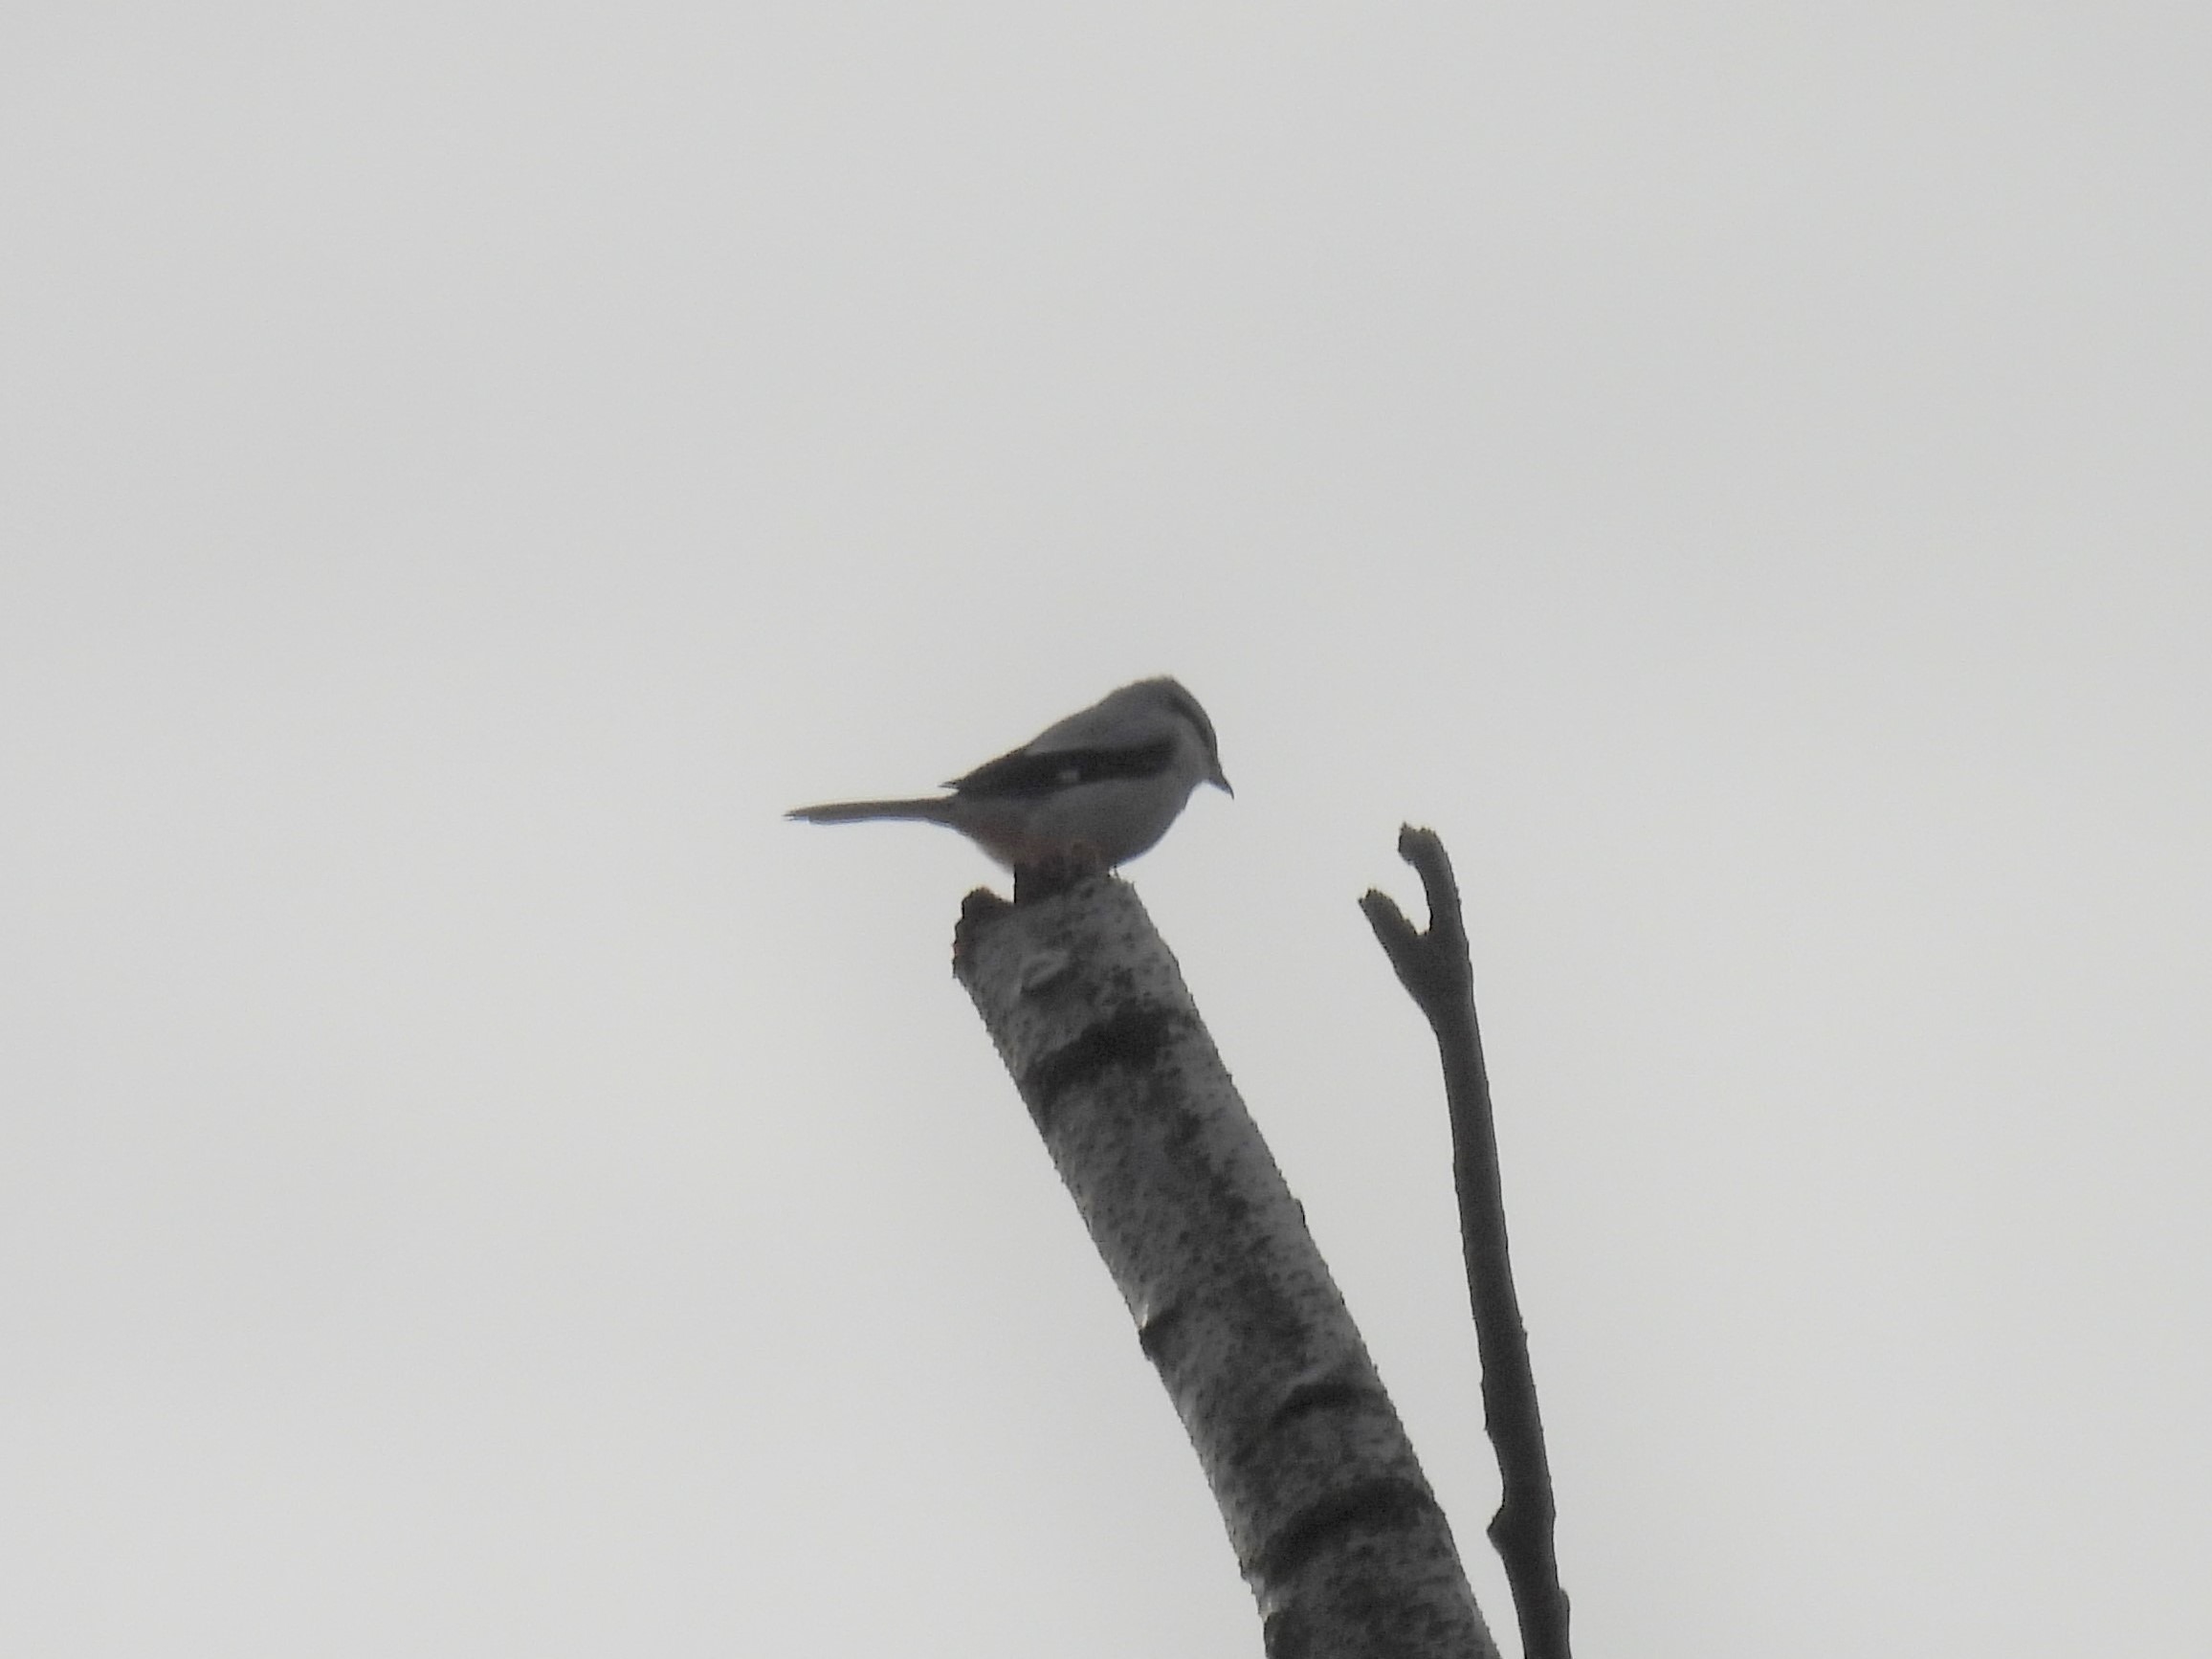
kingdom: Animalia
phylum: Chordata
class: Aves
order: Passeriformes
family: Laniidae
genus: Lanius
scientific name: Lanius excubitor
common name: Stor tornskade
